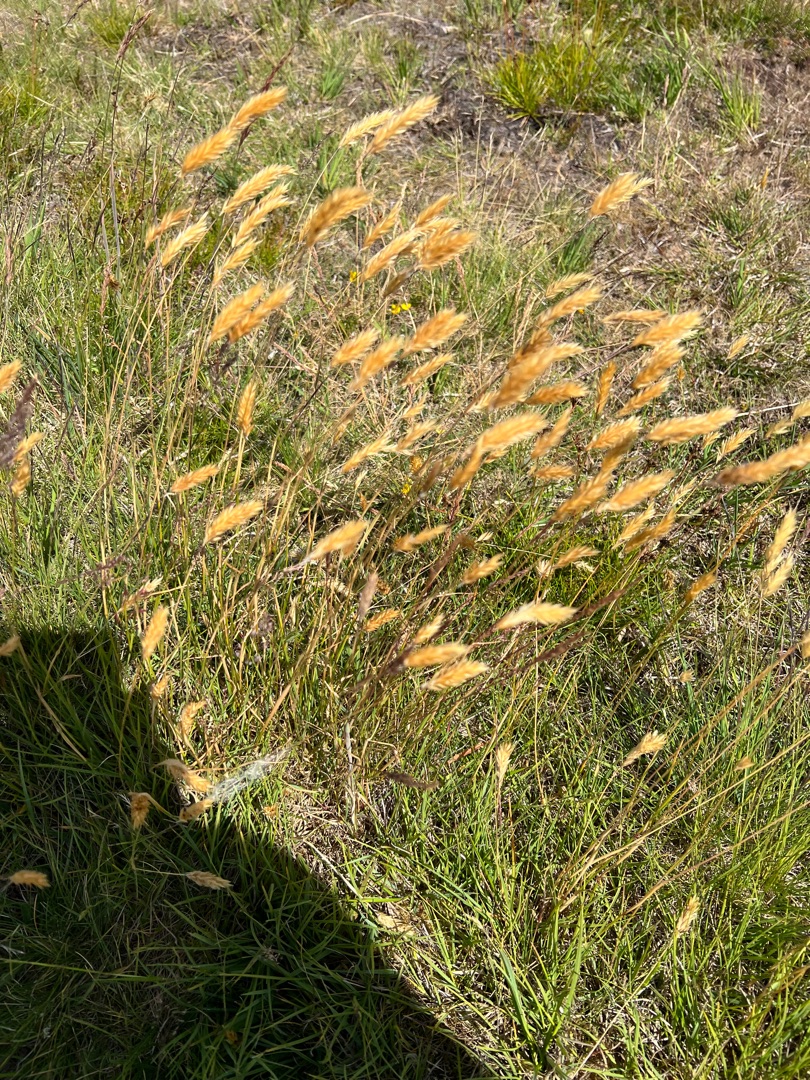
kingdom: Plantae
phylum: Tracheophyta
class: Liliopsida
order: Poales
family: Poaceae
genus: Anthoxanthum
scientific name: Anthoxanthum odoratum
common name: Vellugtende gulaks
